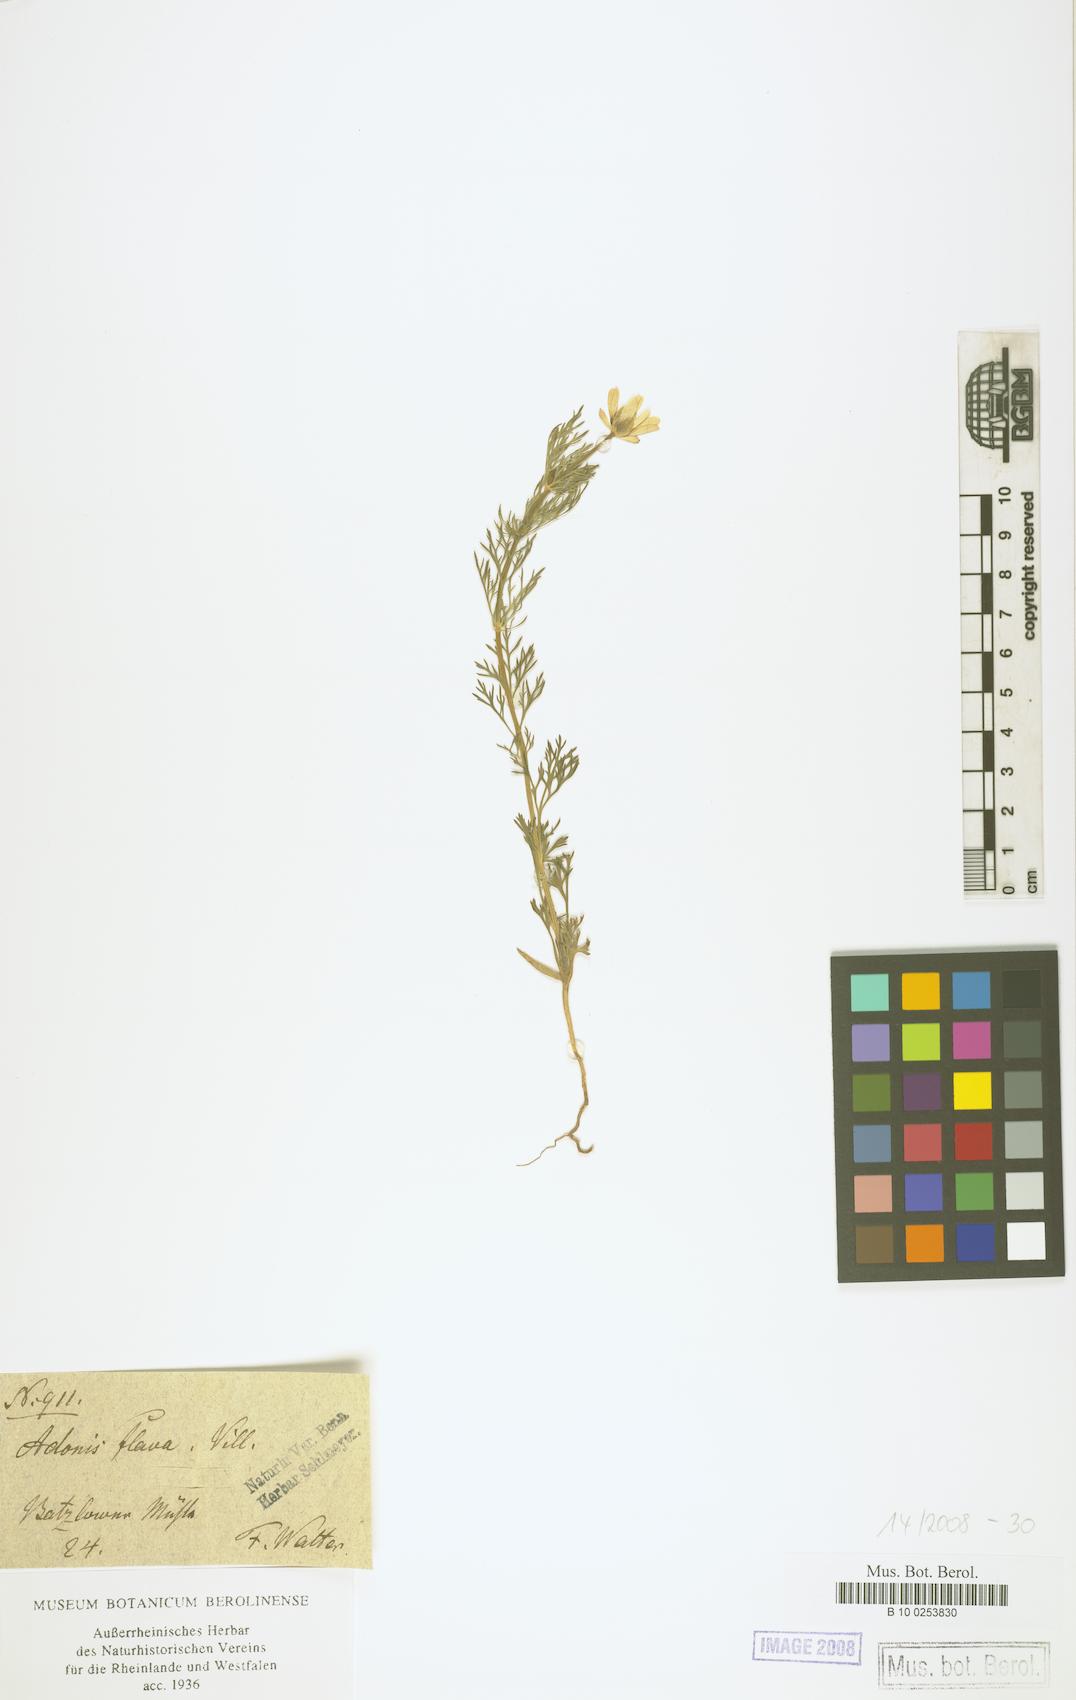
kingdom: Plantae
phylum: Tracheophyta
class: Magnoliopsida
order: Ranunculales
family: Ranunculaceae
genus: Adonis
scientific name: Adonis aestivalis
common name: Summer pheasant's-eye
